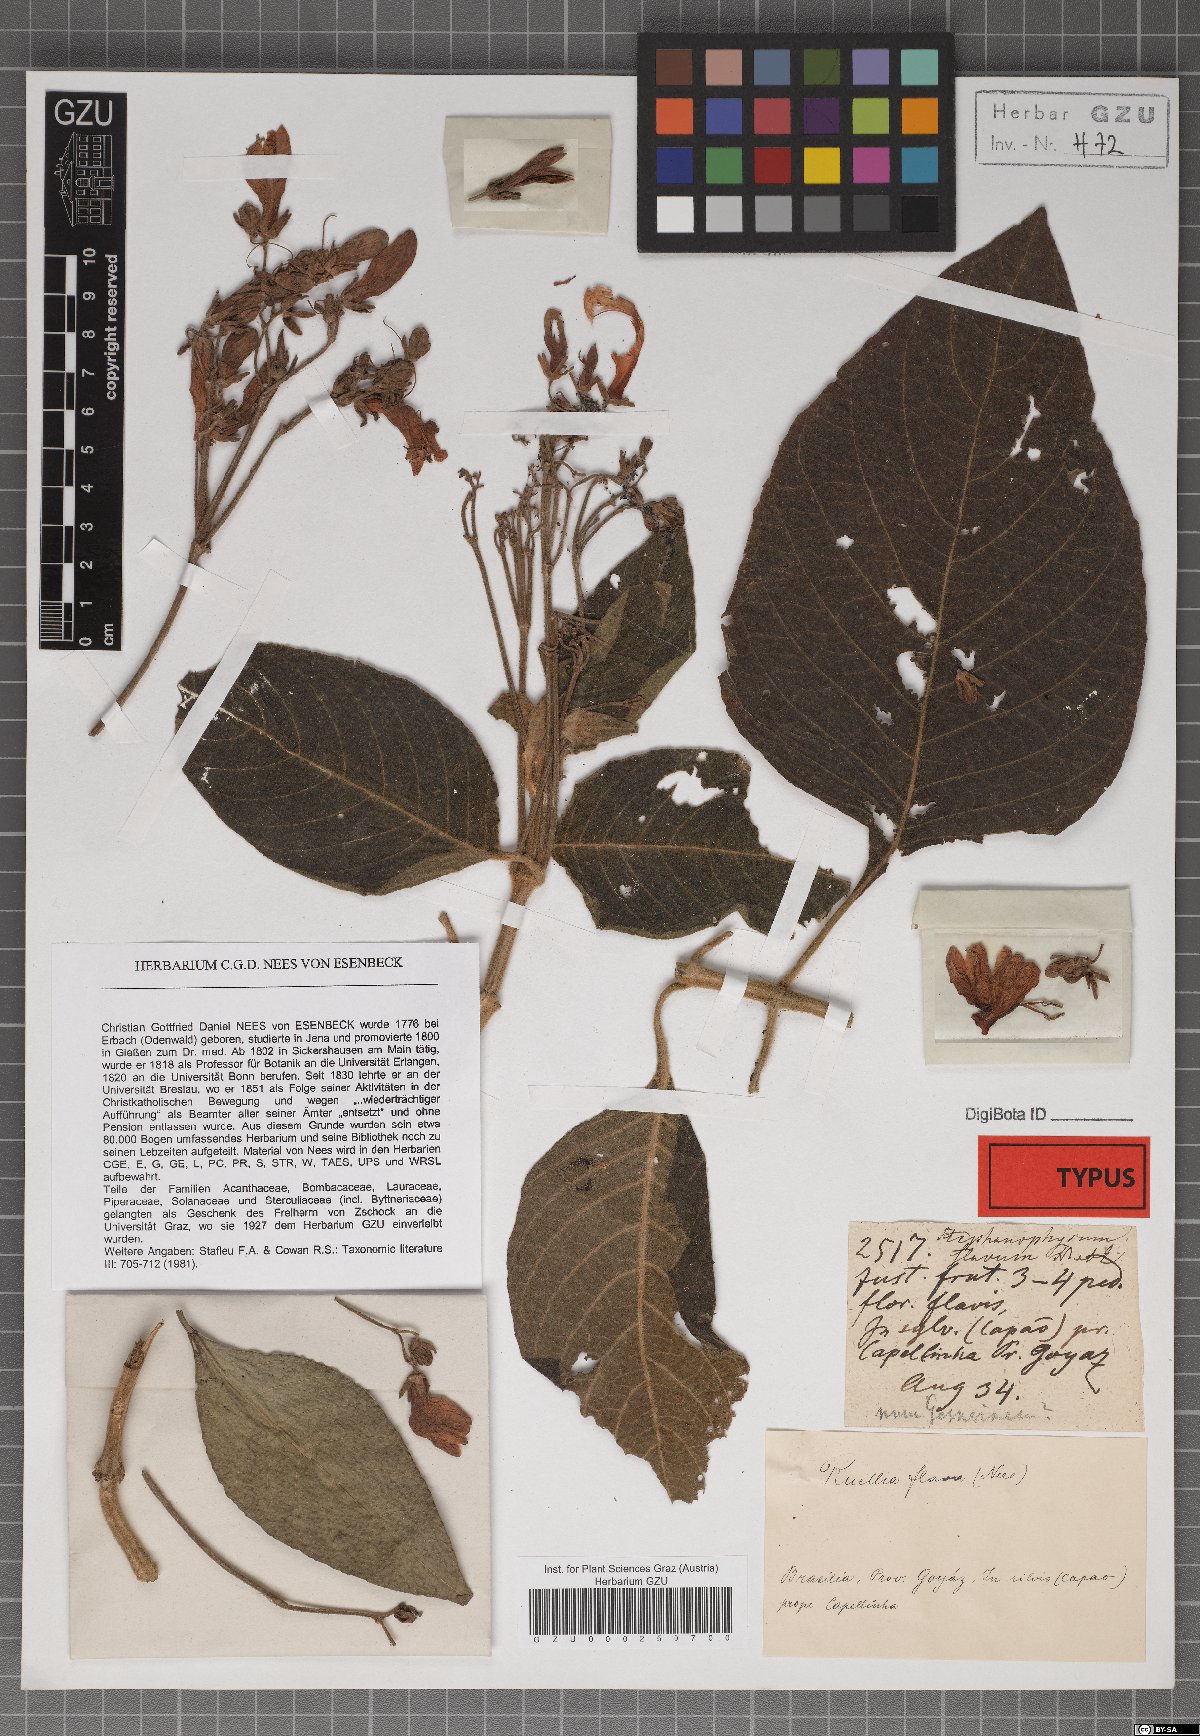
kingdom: Plantae
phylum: Tracheophyta
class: Magnoliopsida
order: Lamiales
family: Acanthaceae
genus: Ruellia
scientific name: Ruellia eurycodon
